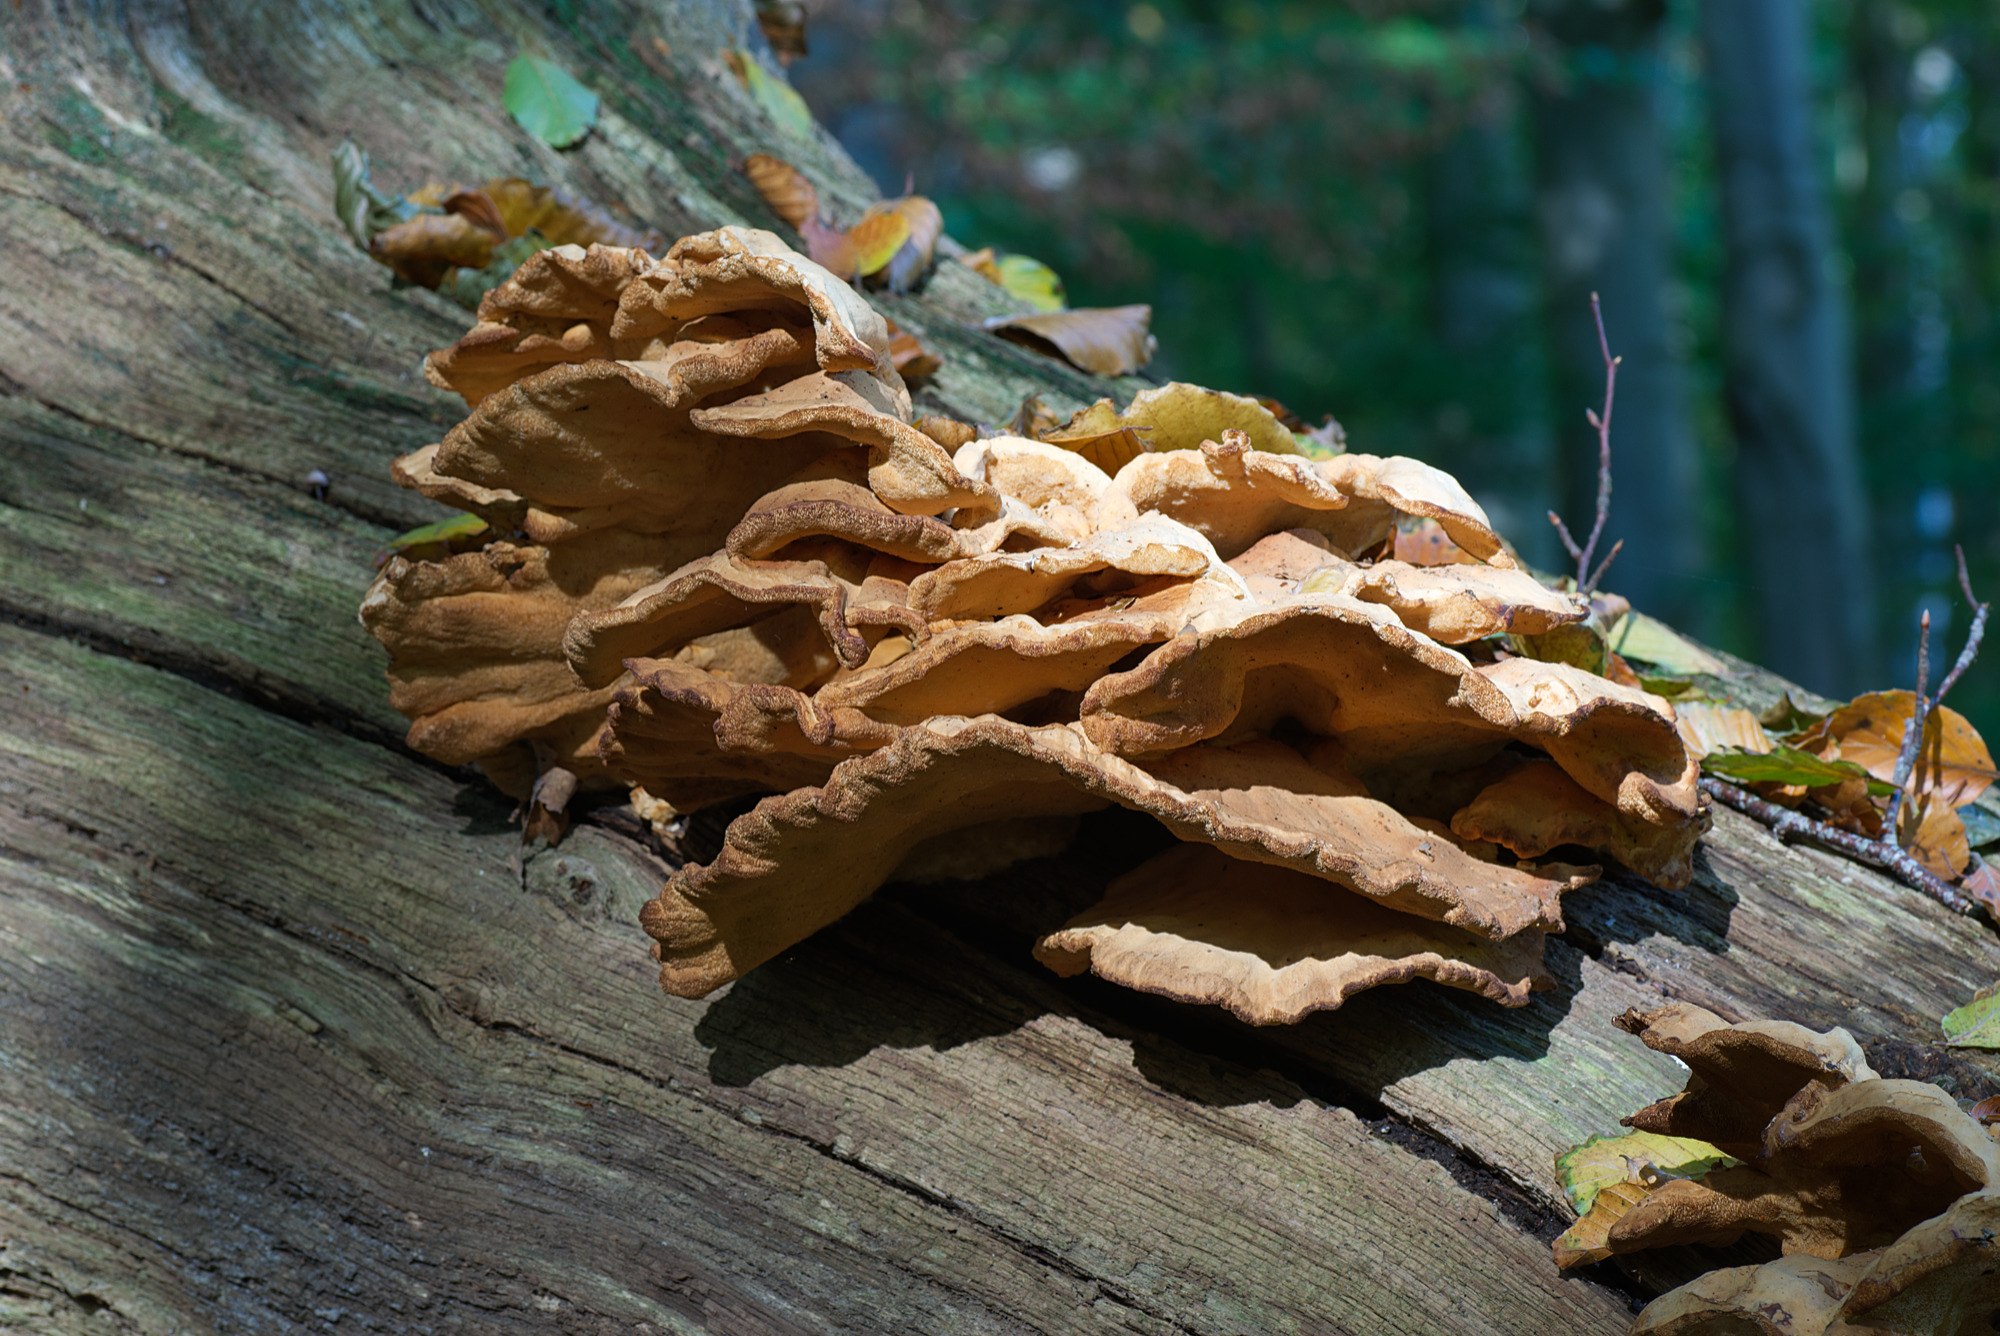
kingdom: Fungi
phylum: Basidiomycota
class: Agaricomycetes
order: Polyporales
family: Laetiporaceae
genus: Laetiporus
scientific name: Laetiporus sulphureus
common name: svovlporesvamp
